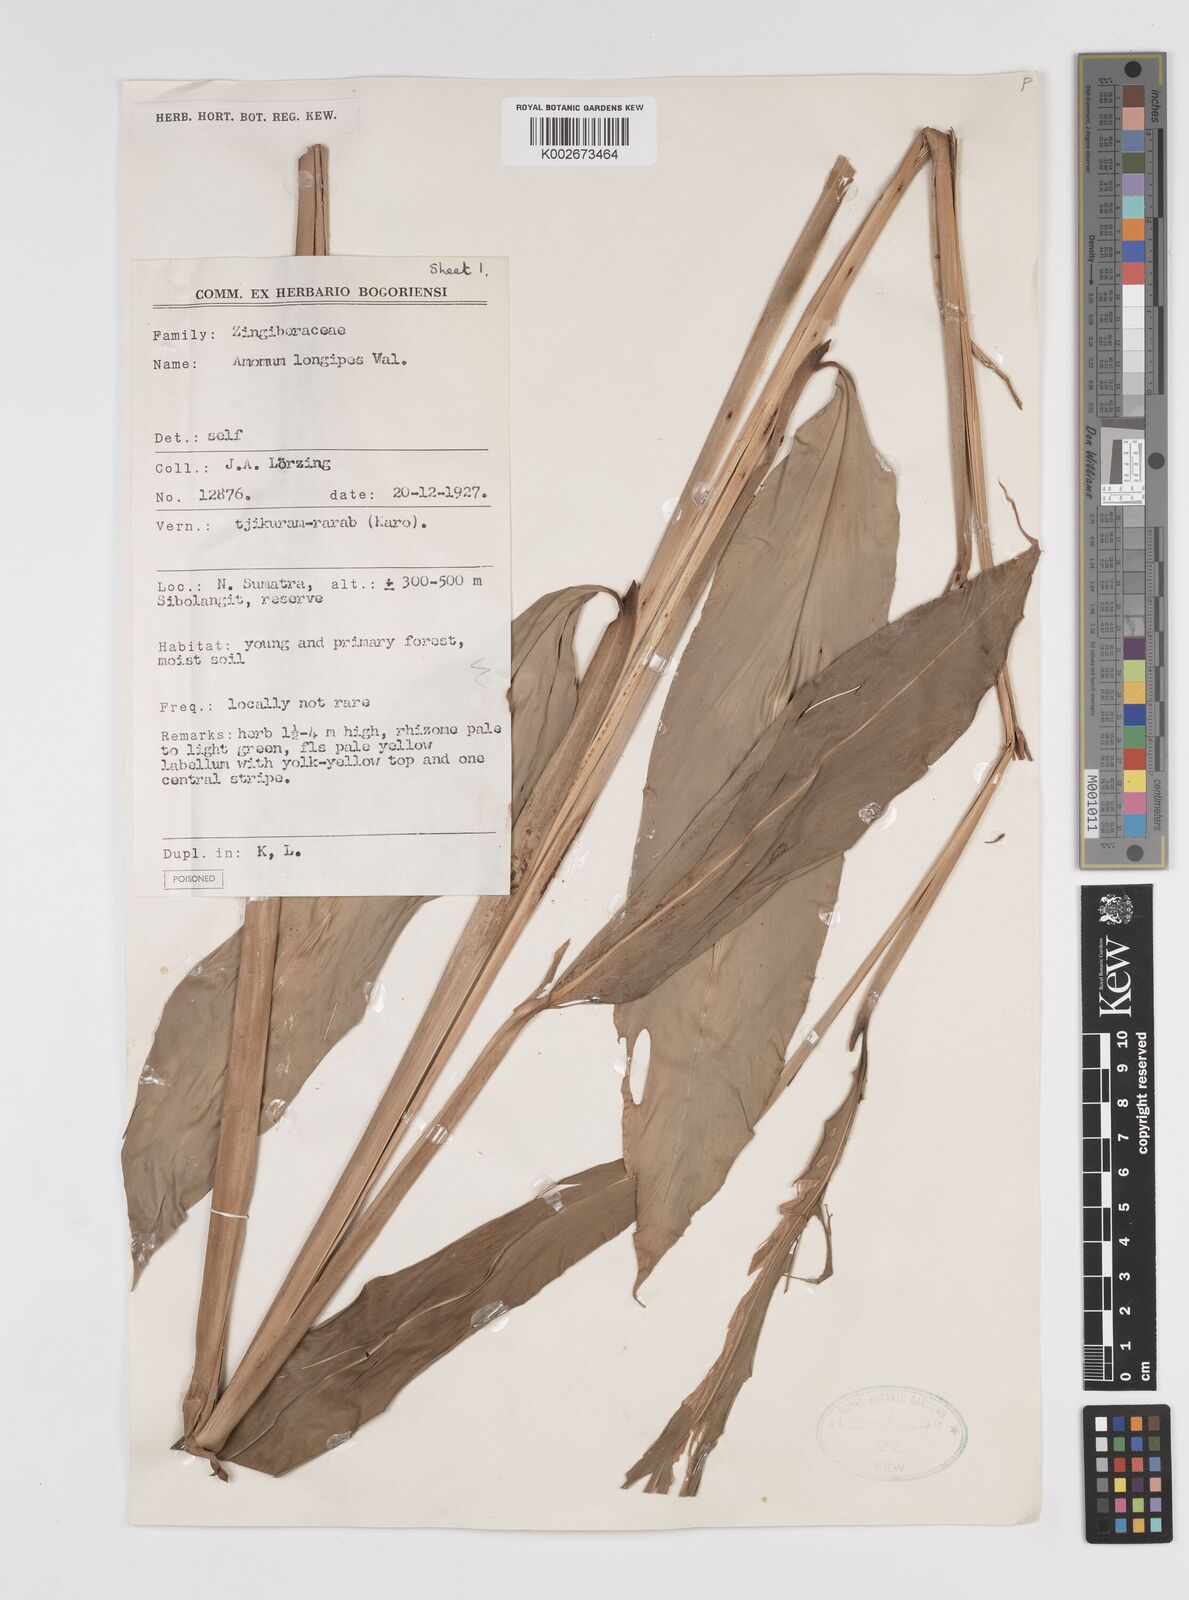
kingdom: Plantae
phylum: Tracheophyta
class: Liliopsida
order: Zingiberales
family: Zingiberaceae
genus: Amomum
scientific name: Amomum longipes
